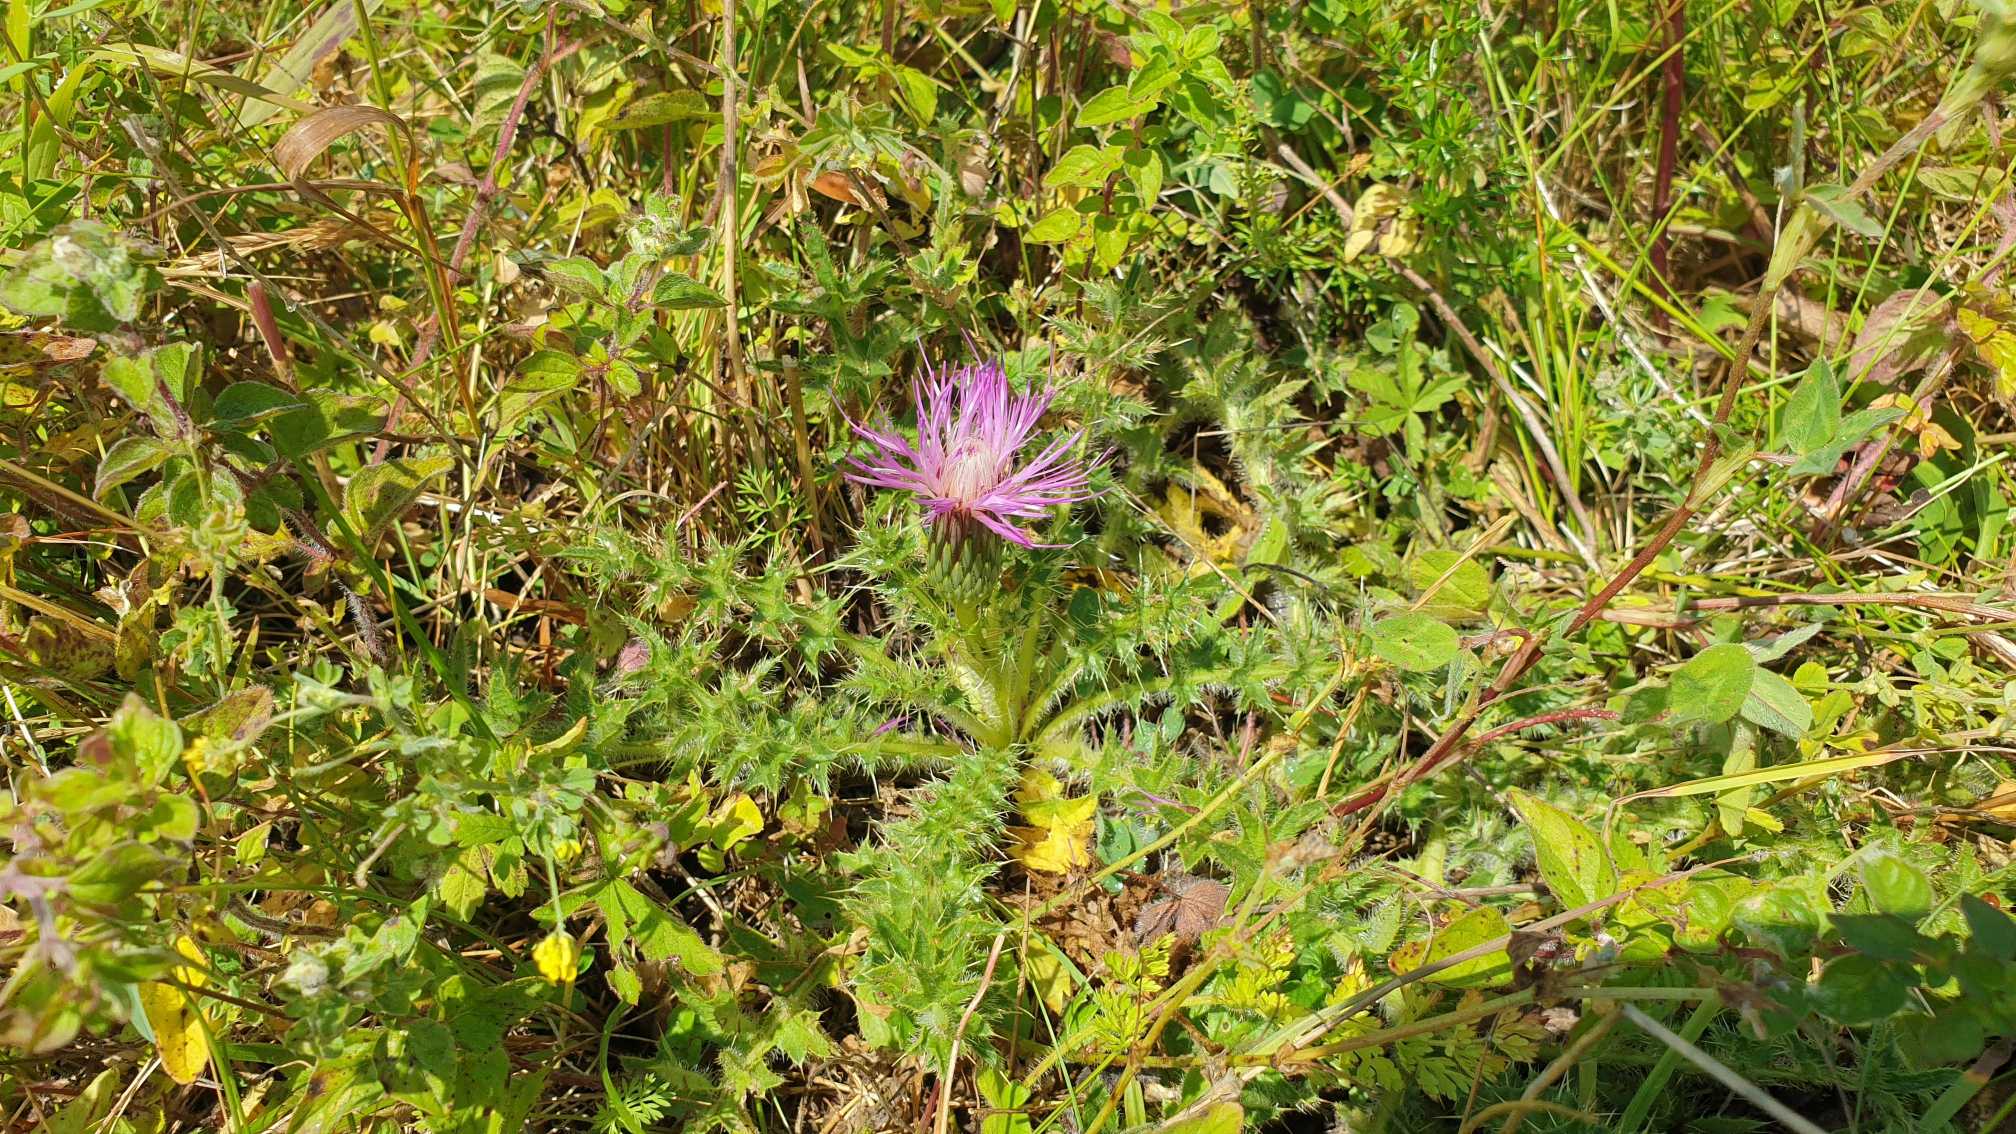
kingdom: Plantae
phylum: Tracheophyta
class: Magnoliopsida
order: Asterales
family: Asteraceae
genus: Cirsium
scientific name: Cirsium acaule
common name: Lav tidsel
